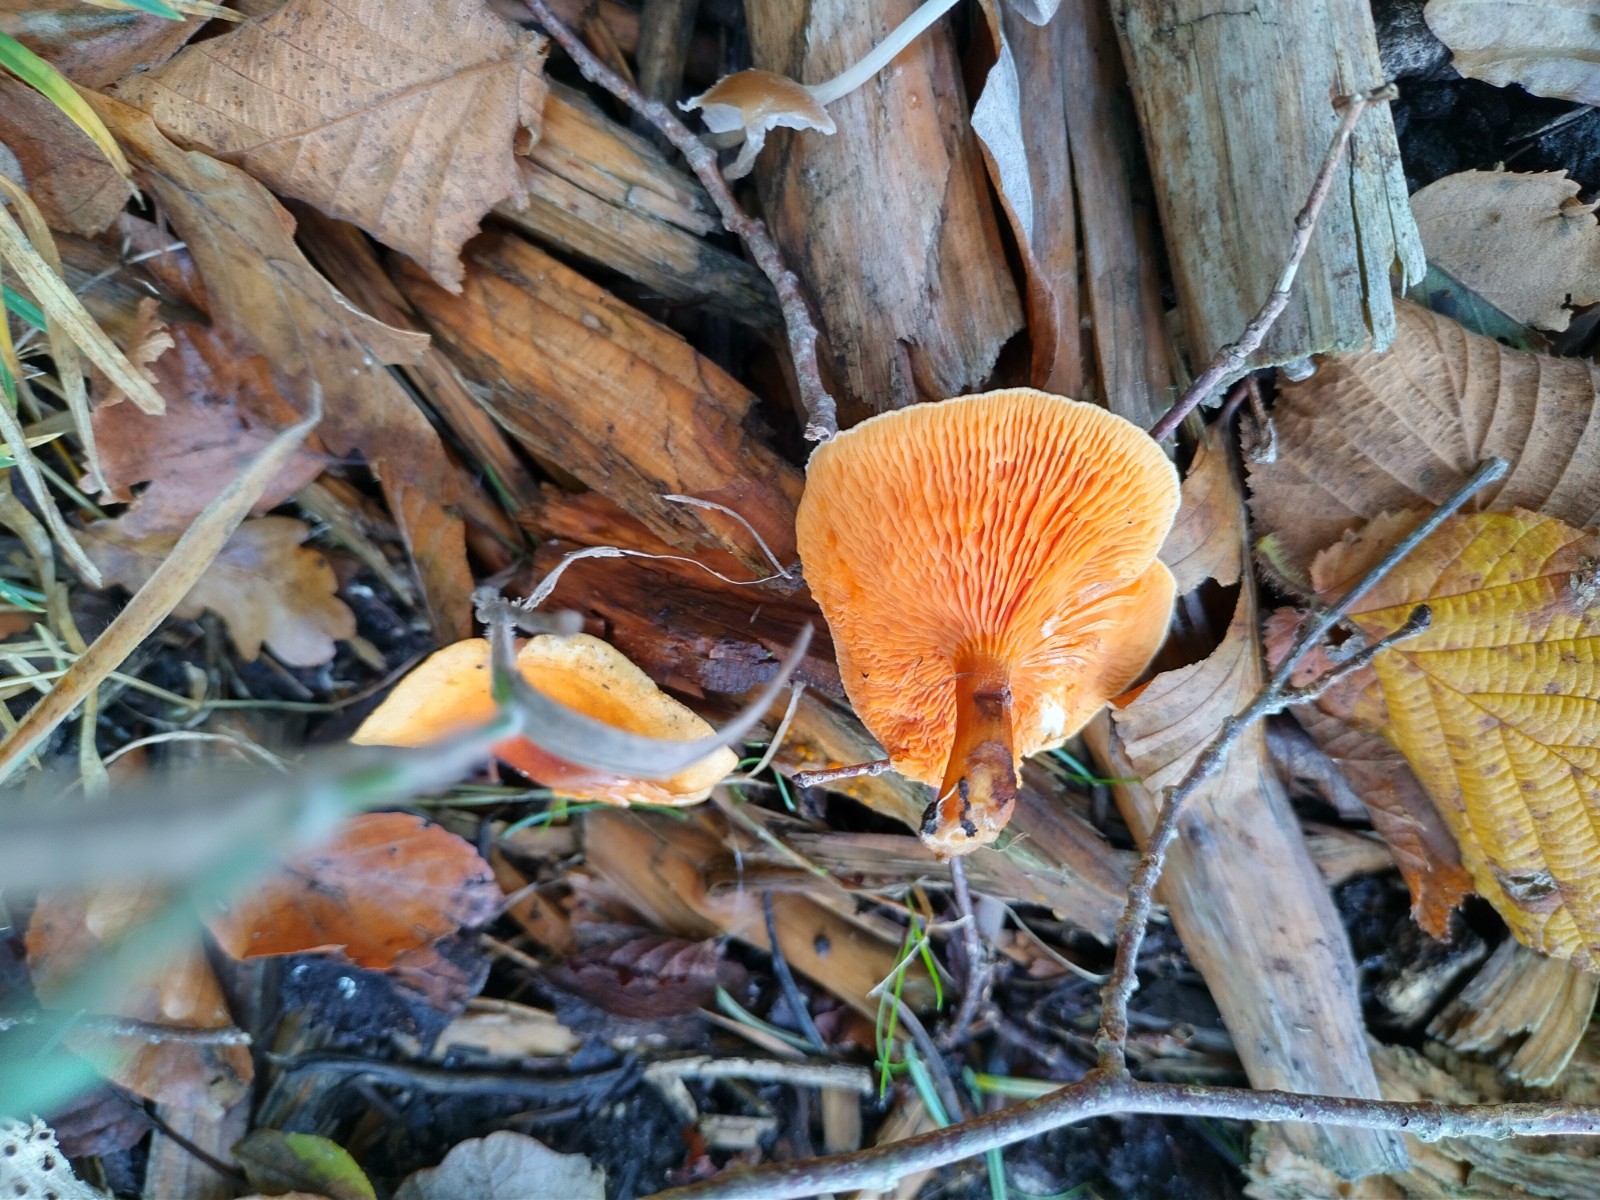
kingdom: Fungi
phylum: Basidiomycota
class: Agaricomycetes
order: Boletales
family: Hygrophoropsidaceae
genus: Hygrophoropsis
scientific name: Hygrophoropsis aurantiaca
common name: almindelig orangekantarel
